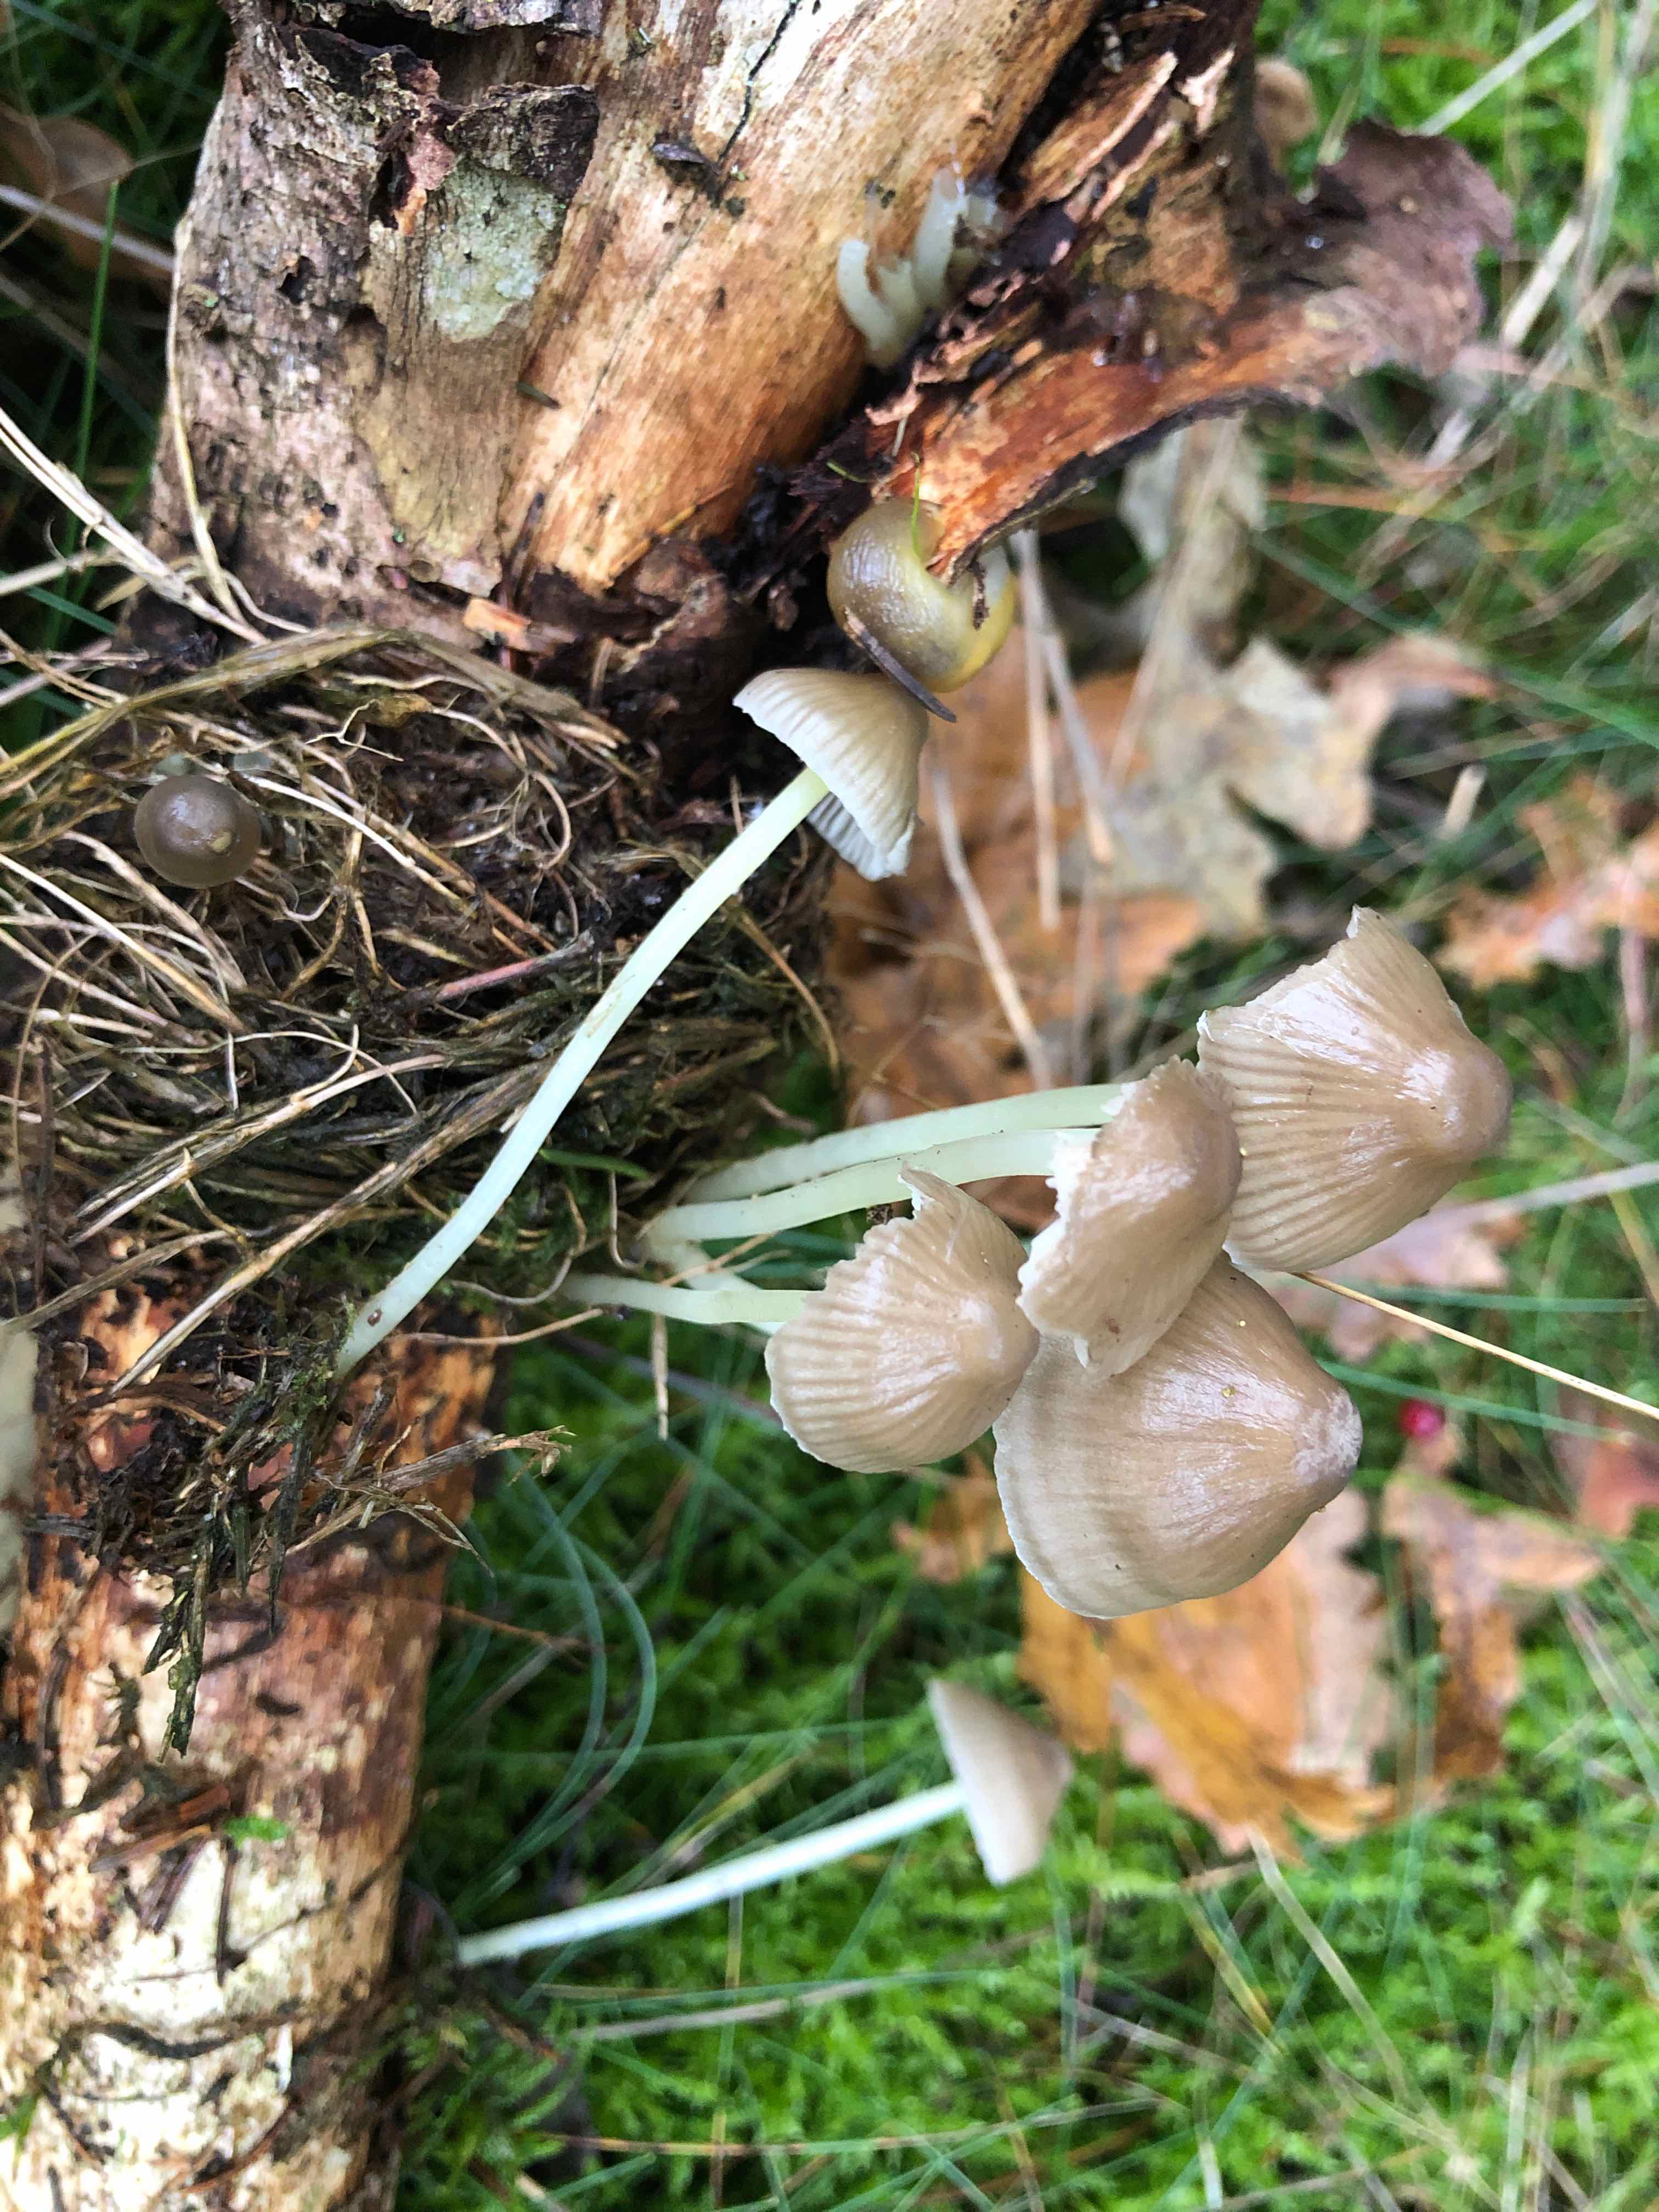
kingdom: Fungi
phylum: Basidiomycota
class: Agaricomycetes
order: Agaricales
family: Mycenaceae
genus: Mycena
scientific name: Mycena epipterygia
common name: gulstokket huesvamp
